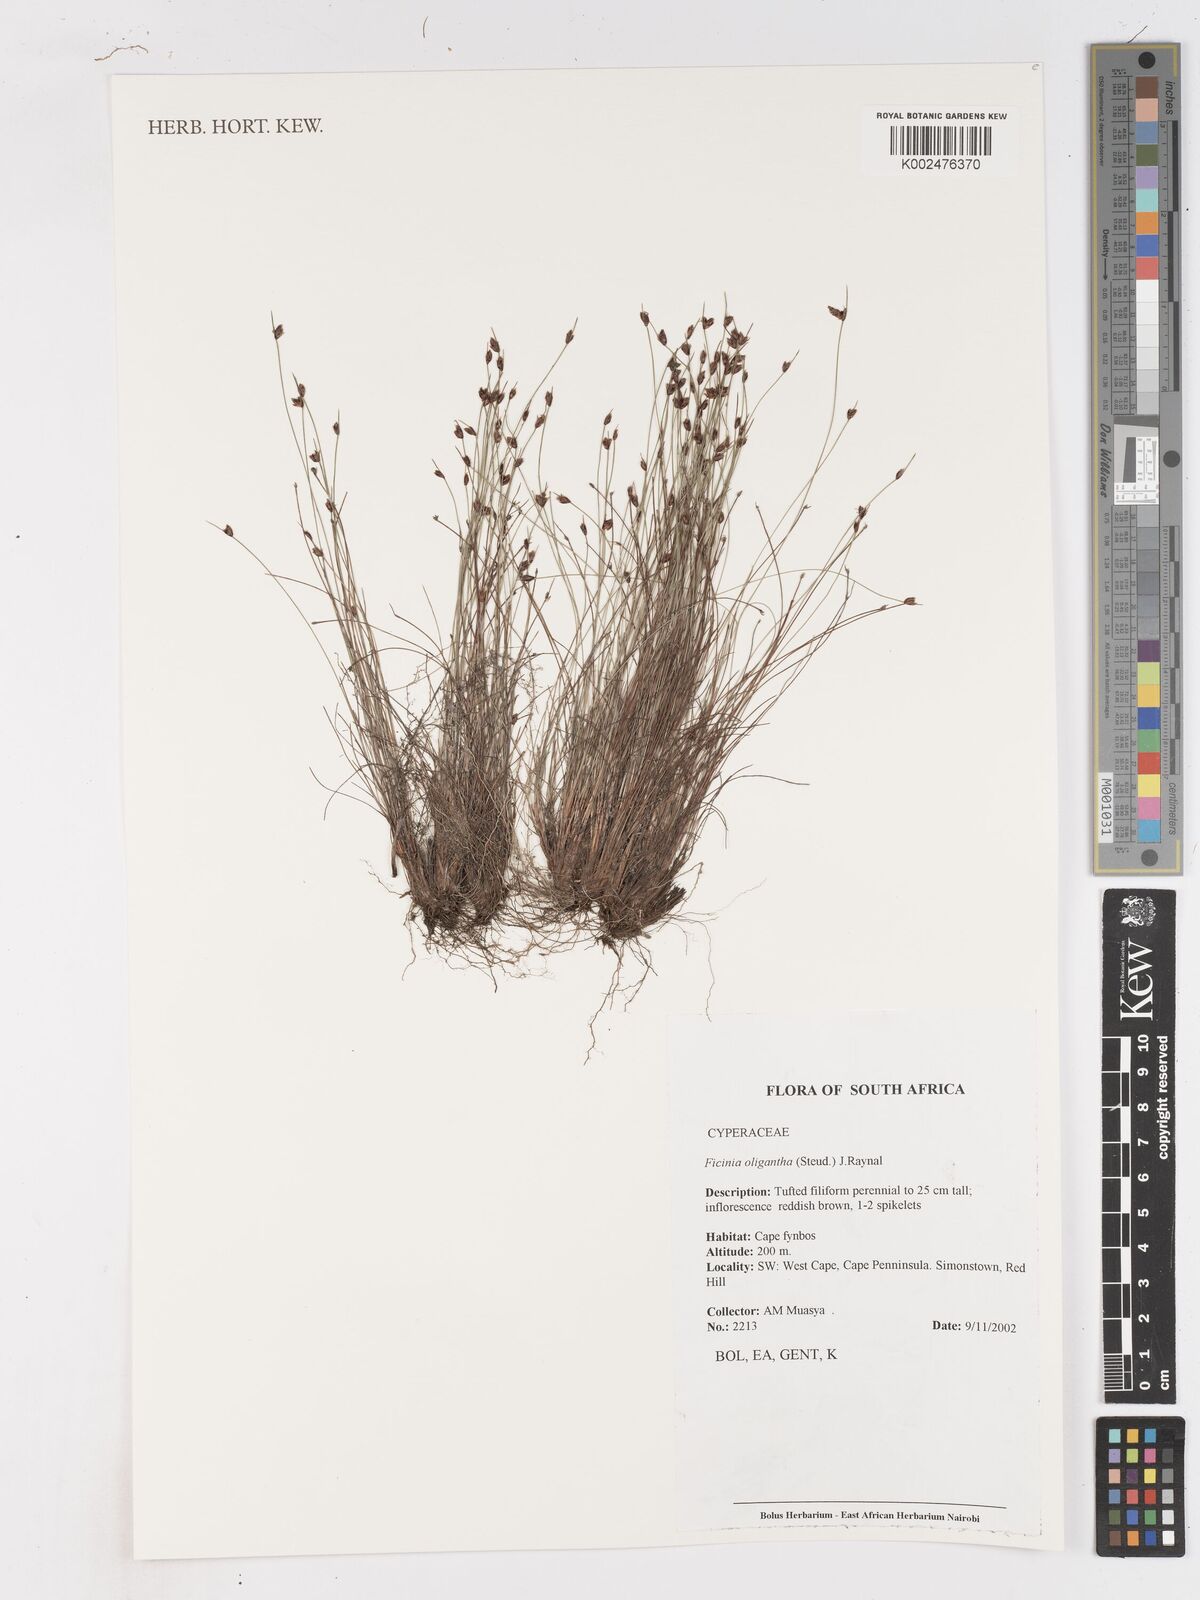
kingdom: Plantae
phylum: Tracheophyta
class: Liliopsida
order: Poales
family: Cyperaceae
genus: Ficinia
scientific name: Ficinia oligantha
